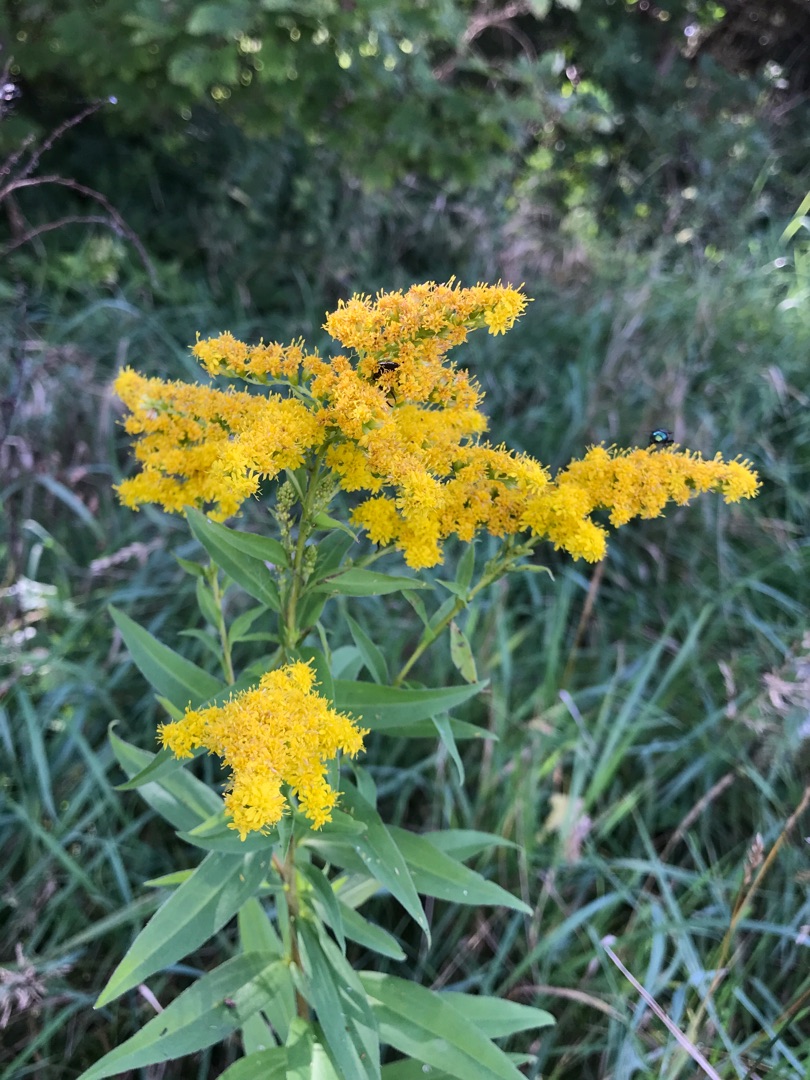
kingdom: Plantae
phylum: Tracheophyta
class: Magnoliopsida
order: Asterales
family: Asteraceae
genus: Solidago
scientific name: Solidago gigantea
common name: Sildig gyldenris
